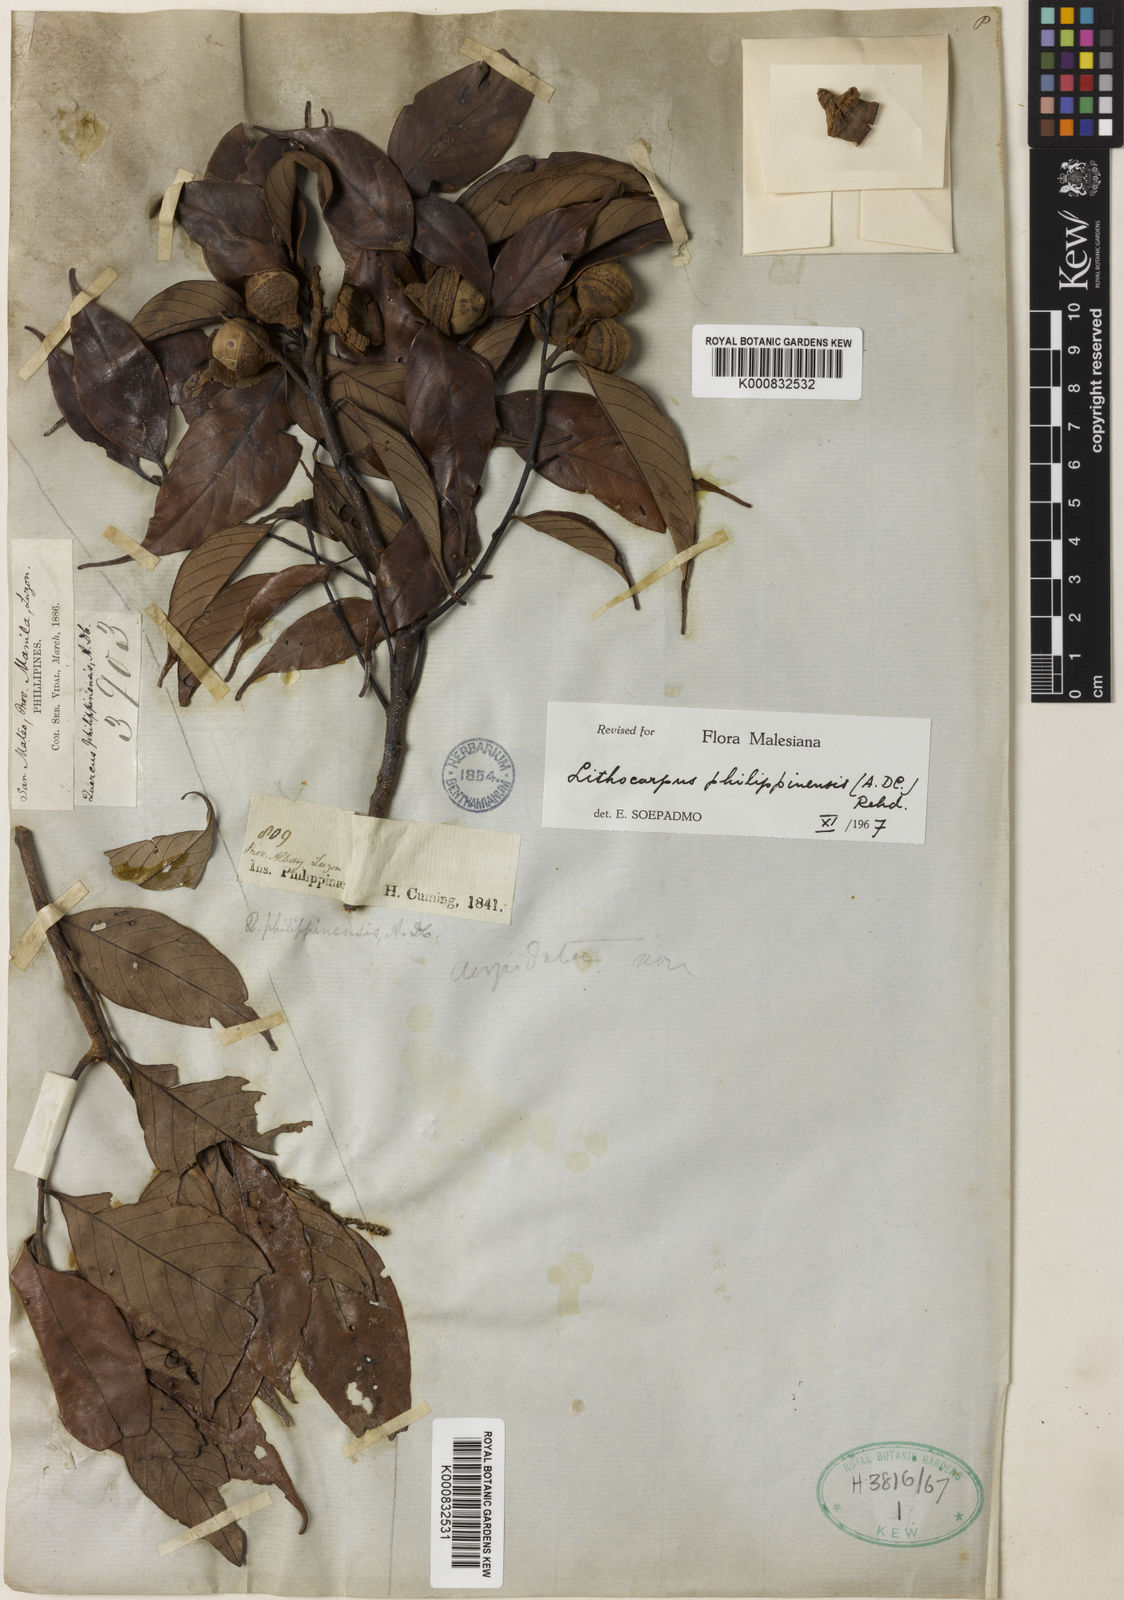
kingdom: Plantae
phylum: Tracheophyta
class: Magnoliopsida
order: Fagales
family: Fagaceae
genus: Lithocarpus
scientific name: Lithocarpus philippinensis
